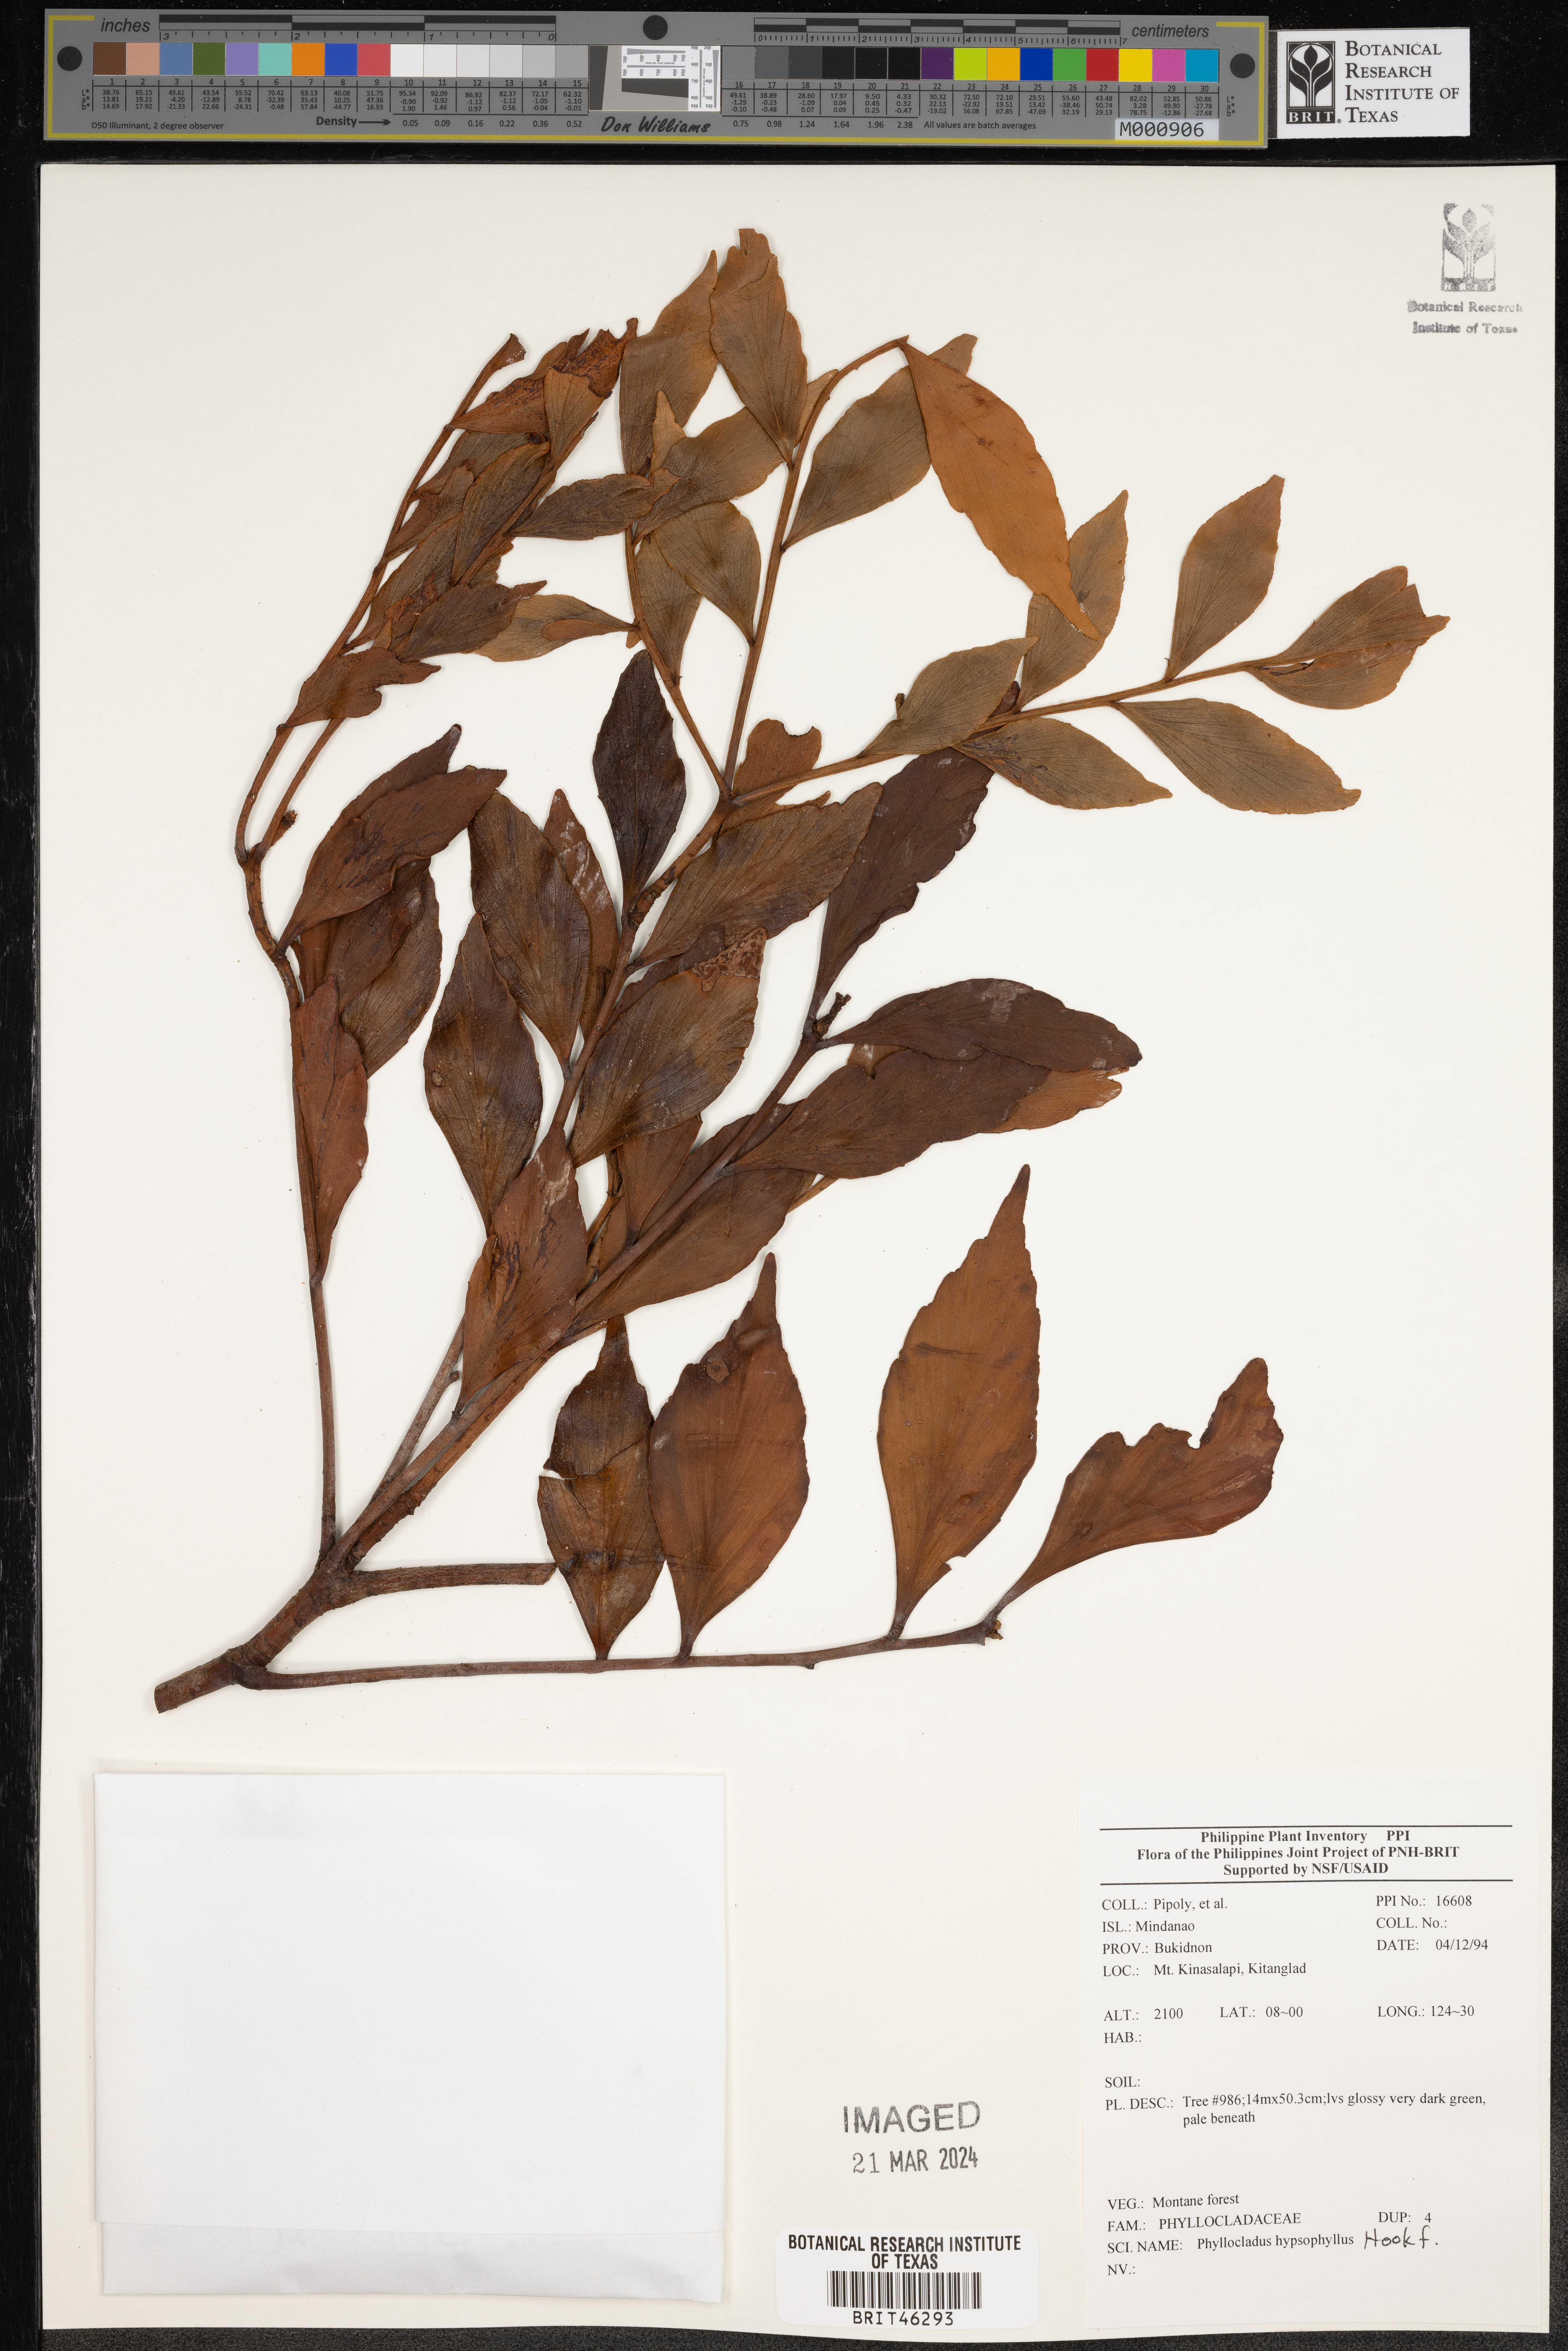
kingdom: Plantae
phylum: Tracheophyta
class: Pinopsida
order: Pinales
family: Phyllocladaceae
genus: Phyllocladus
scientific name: Phyllocladus hypophyllus
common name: Celery pine
